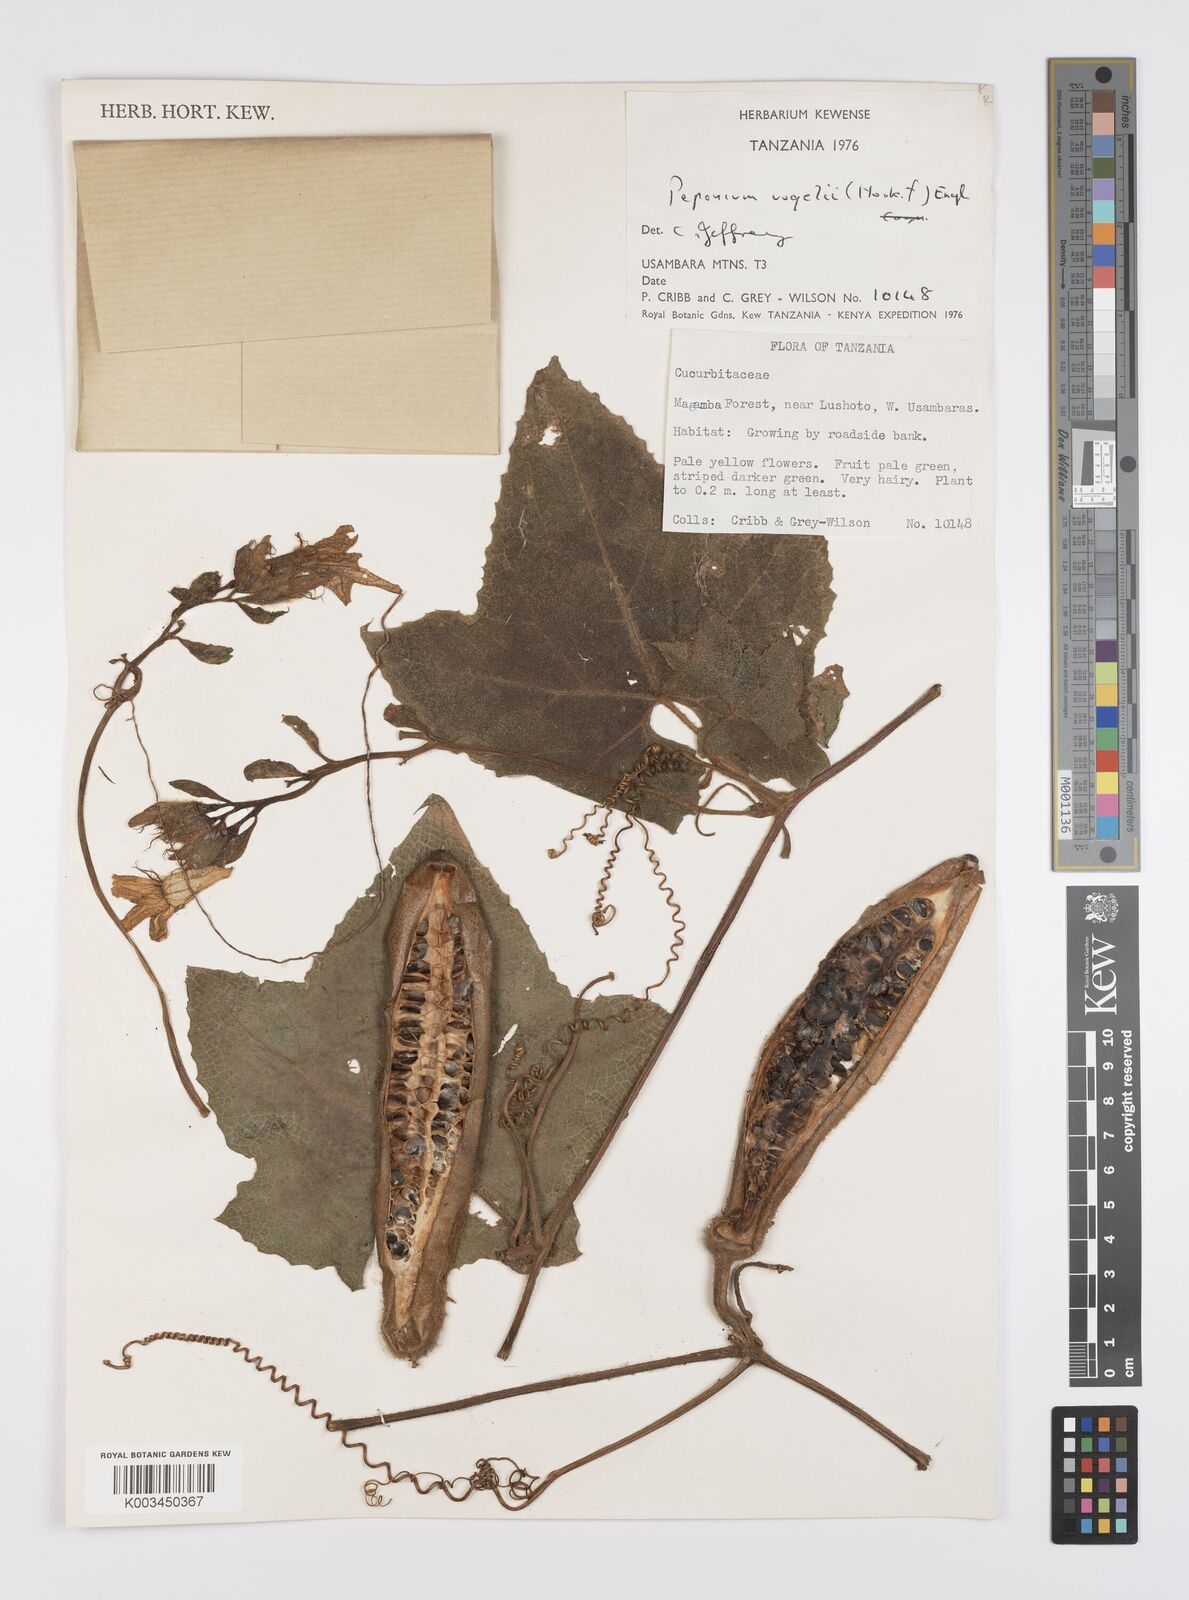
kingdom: Plantae
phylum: Tracheophyta
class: Magnoliopsida
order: Cucurbitales
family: Cucurbitaceae
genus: Peponium
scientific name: Peponium vogelii
